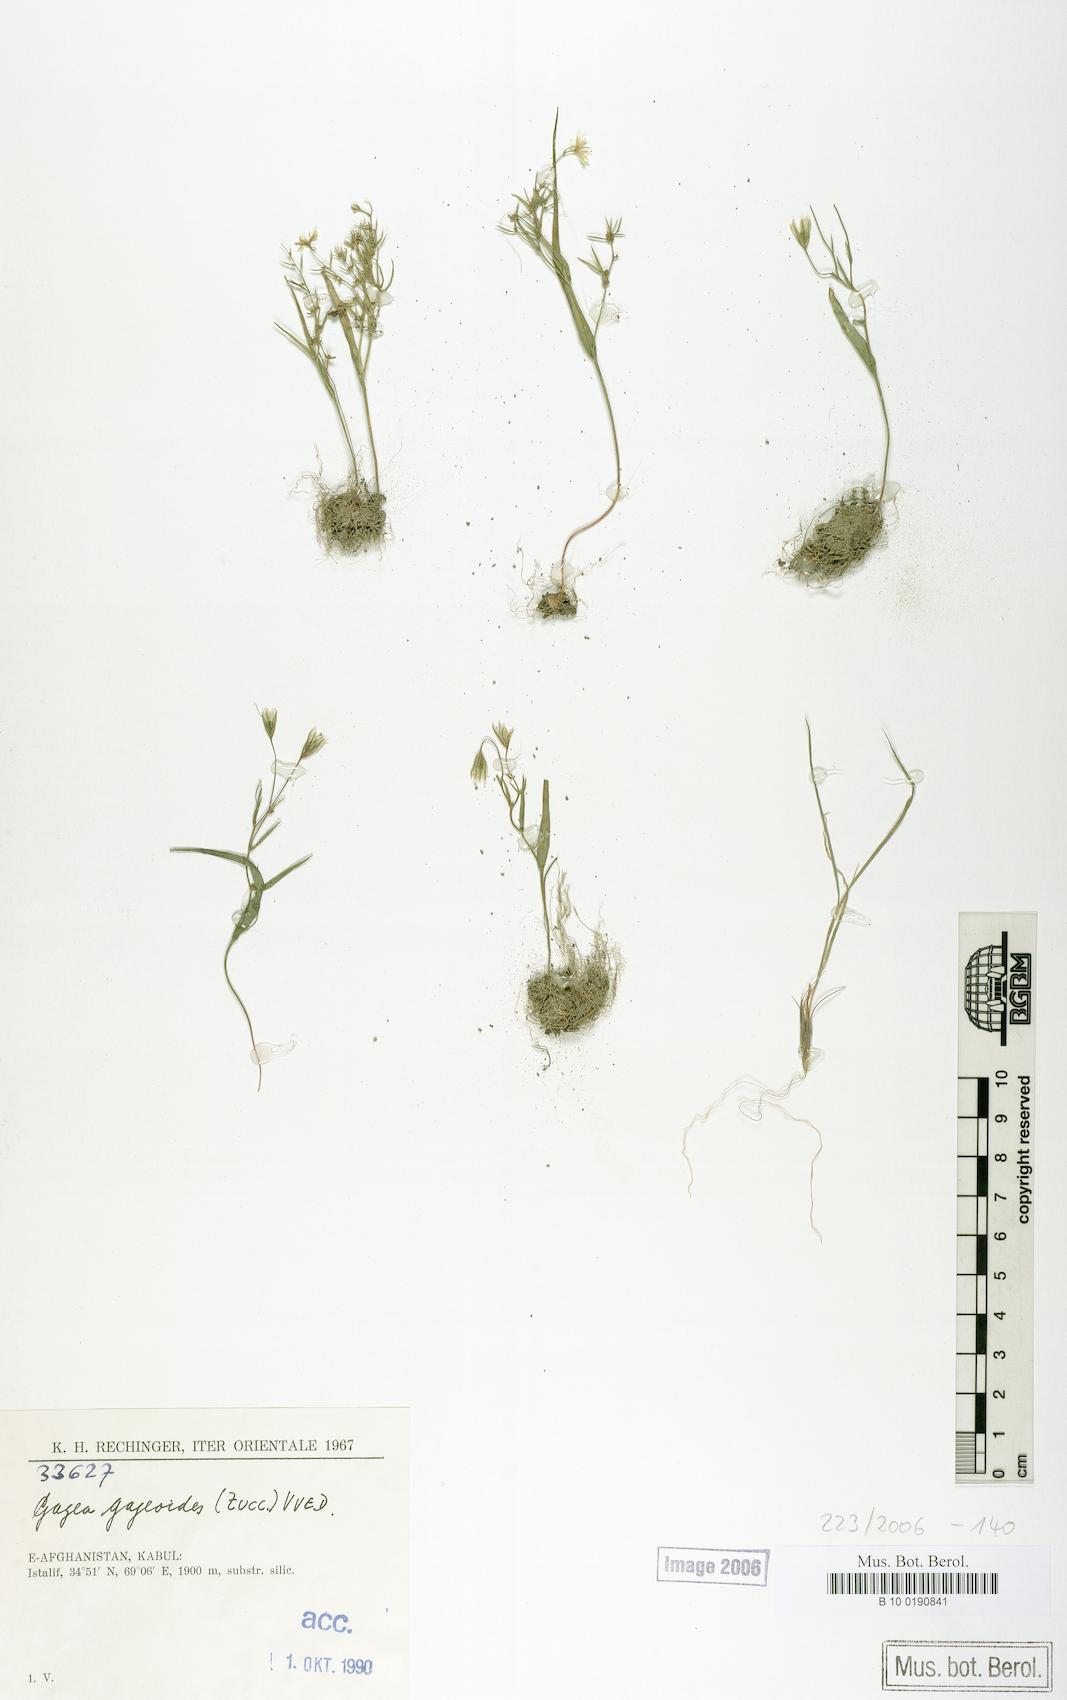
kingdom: Plantae
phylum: Tracheophyta
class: Liliopsida
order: Liliales
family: Liliaceae
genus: Gagea
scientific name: Gagea gageoides
